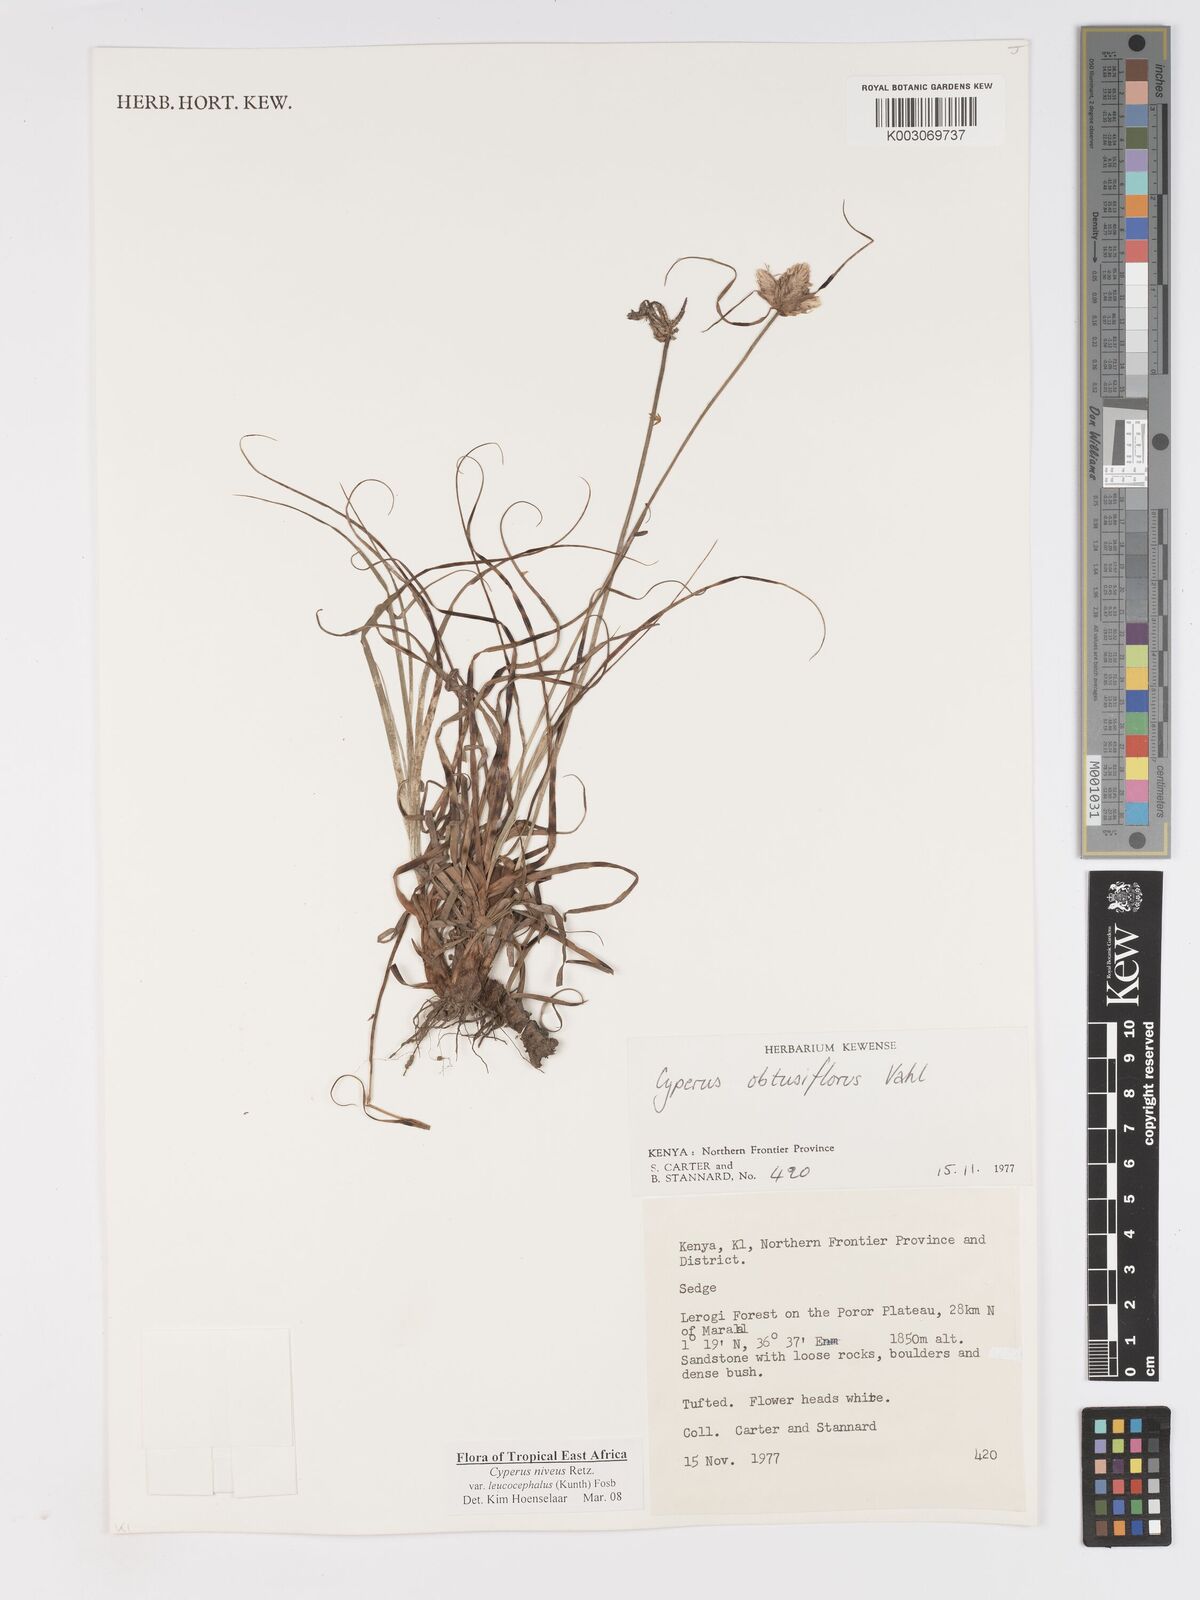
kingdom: Plantae
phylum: Tracheophyta
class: Liliopsida
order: Poales
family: Cyperaceae
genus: Cyperus
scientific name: Cyperus niveus
